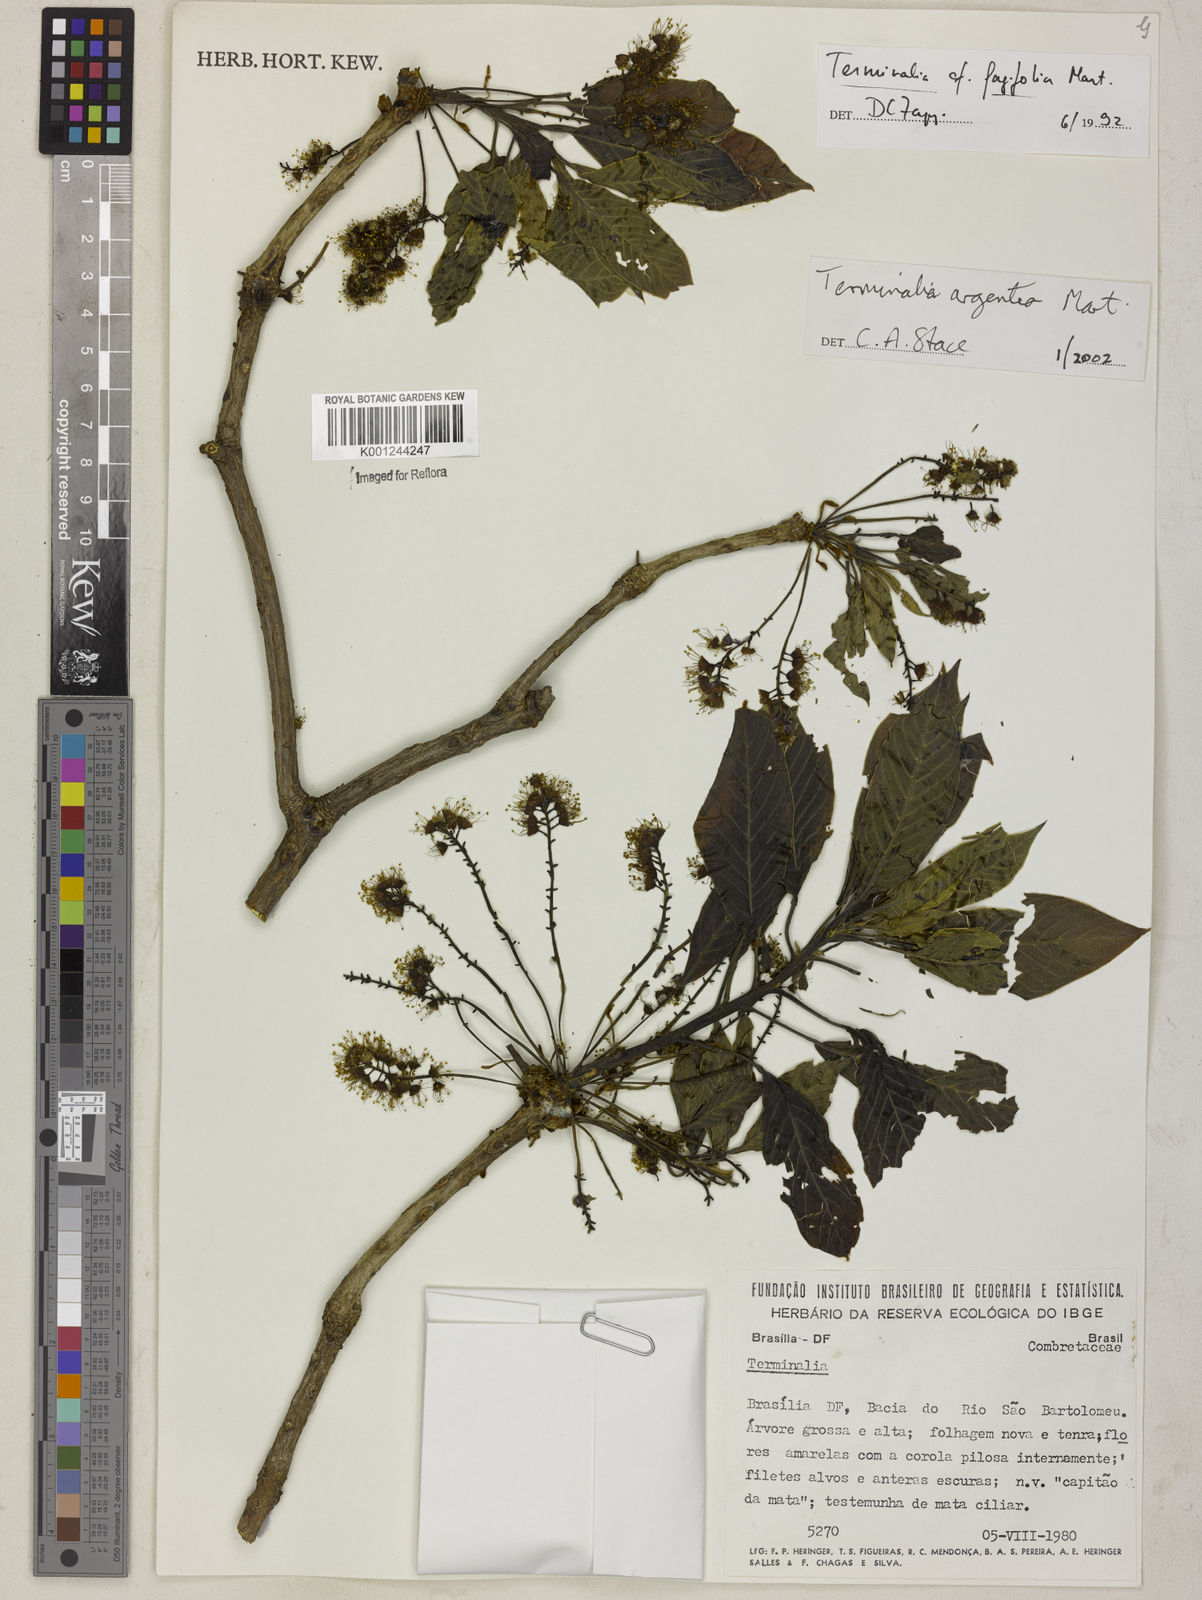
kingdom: Plantae
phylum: Tracheophyta
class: Magnoliopsida
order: Myrtales
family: Combretaceae
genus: Terminalia
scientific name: Terminalia argentea
